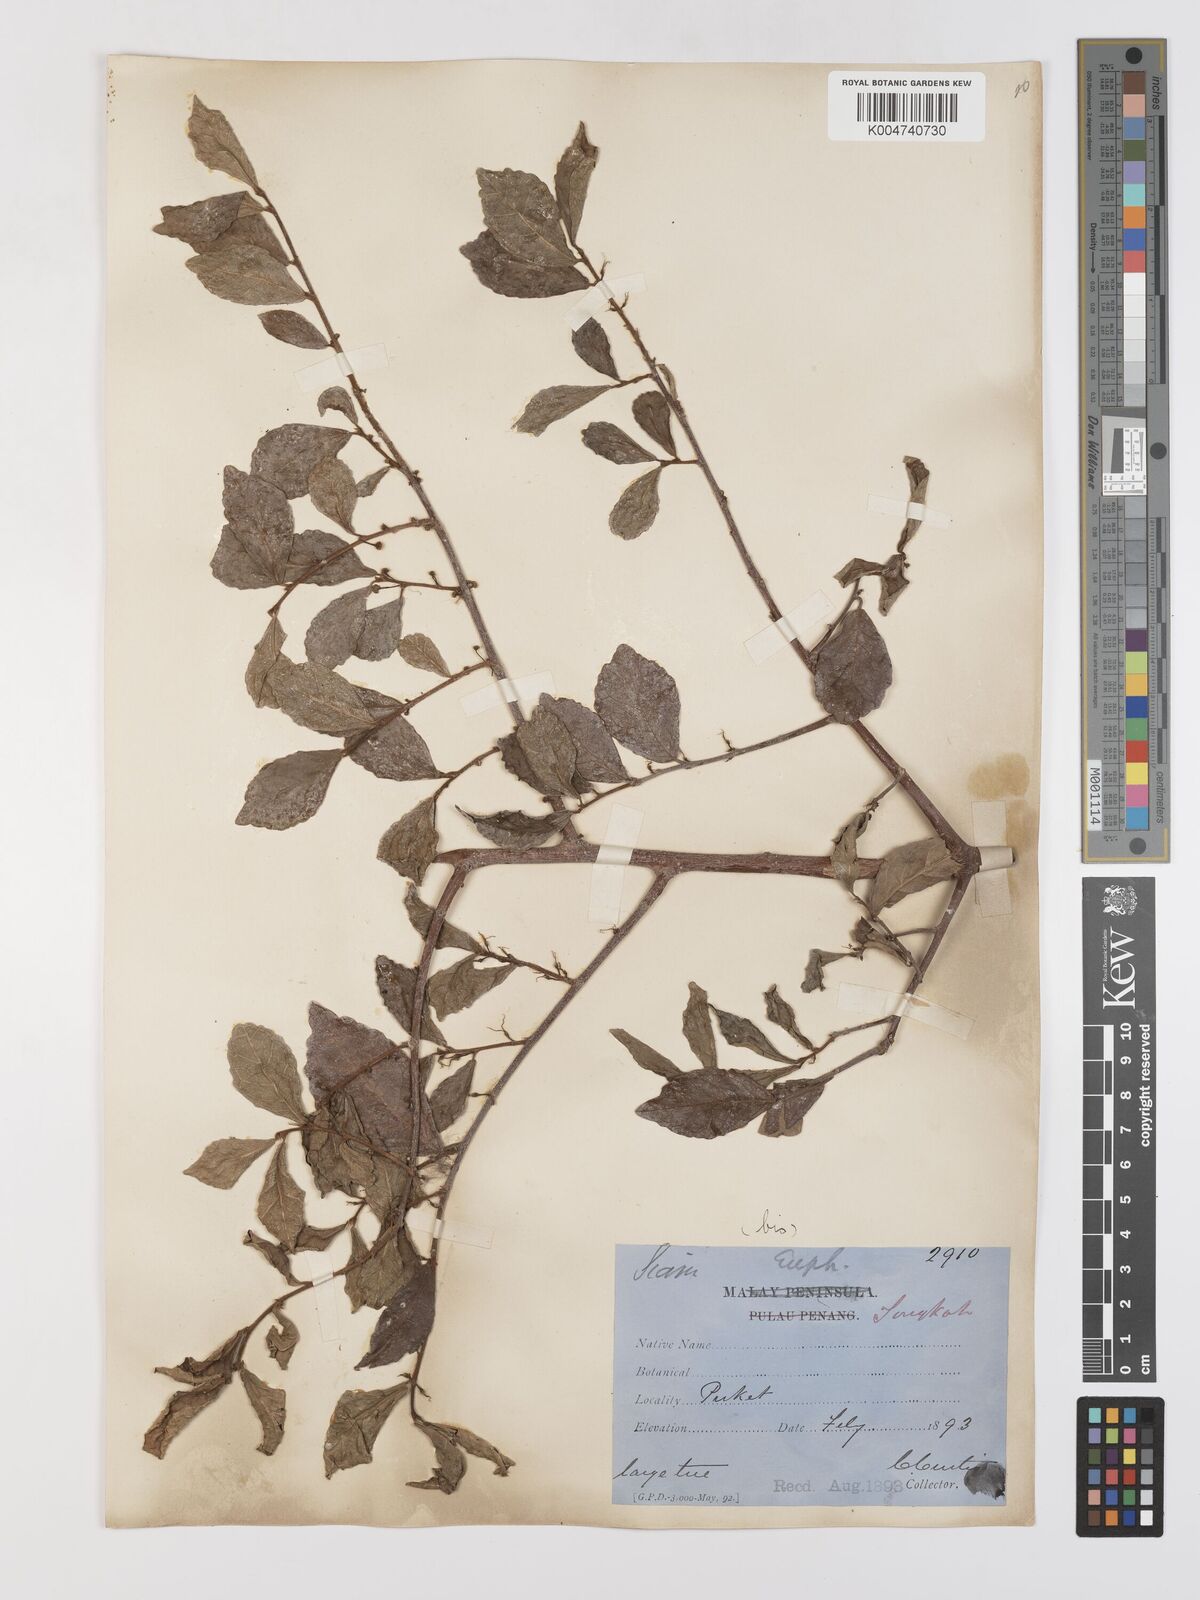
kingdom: Plantae
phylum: Tracheophyta
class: Magnoliopsida
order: Rosales
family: Moraceae
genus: Streblus
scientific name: Streblus asper
